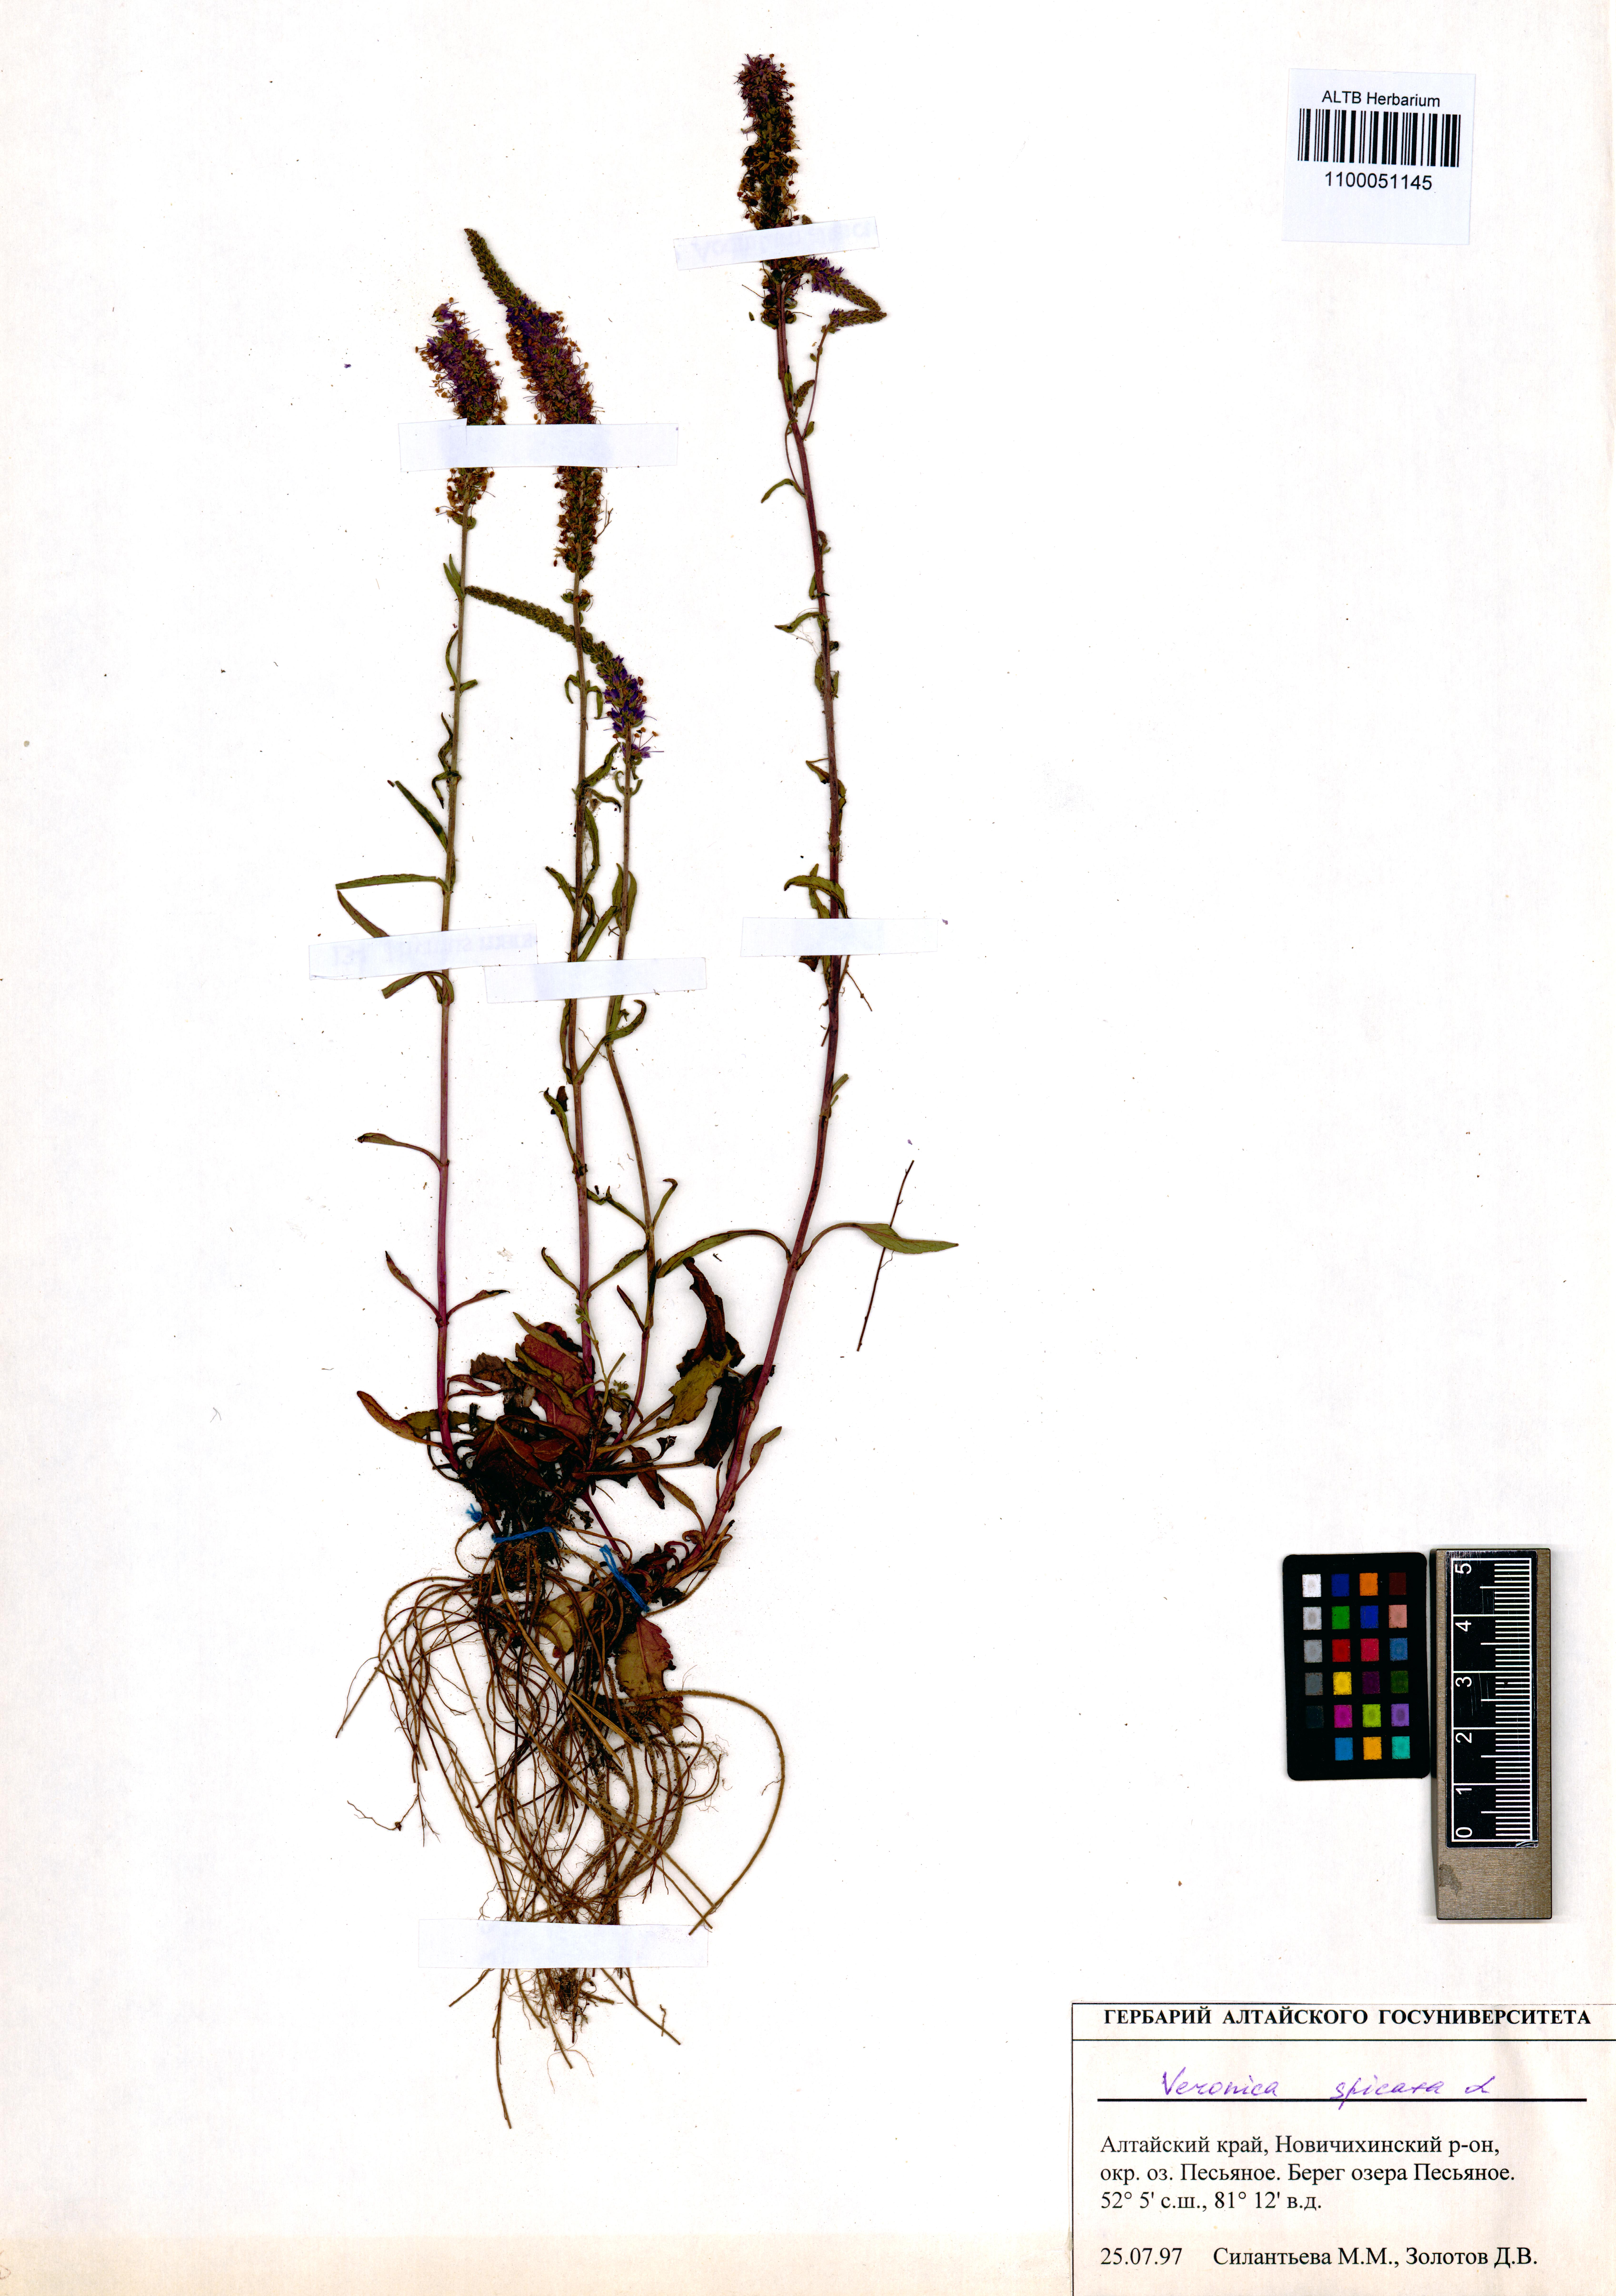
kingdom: Plantae
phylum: Tracheophyta
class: Magnoliopsida
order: Lamiales
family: Plantaginaceae
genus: Veronica
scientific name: Veronica spicata
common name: Spiked speedwell
